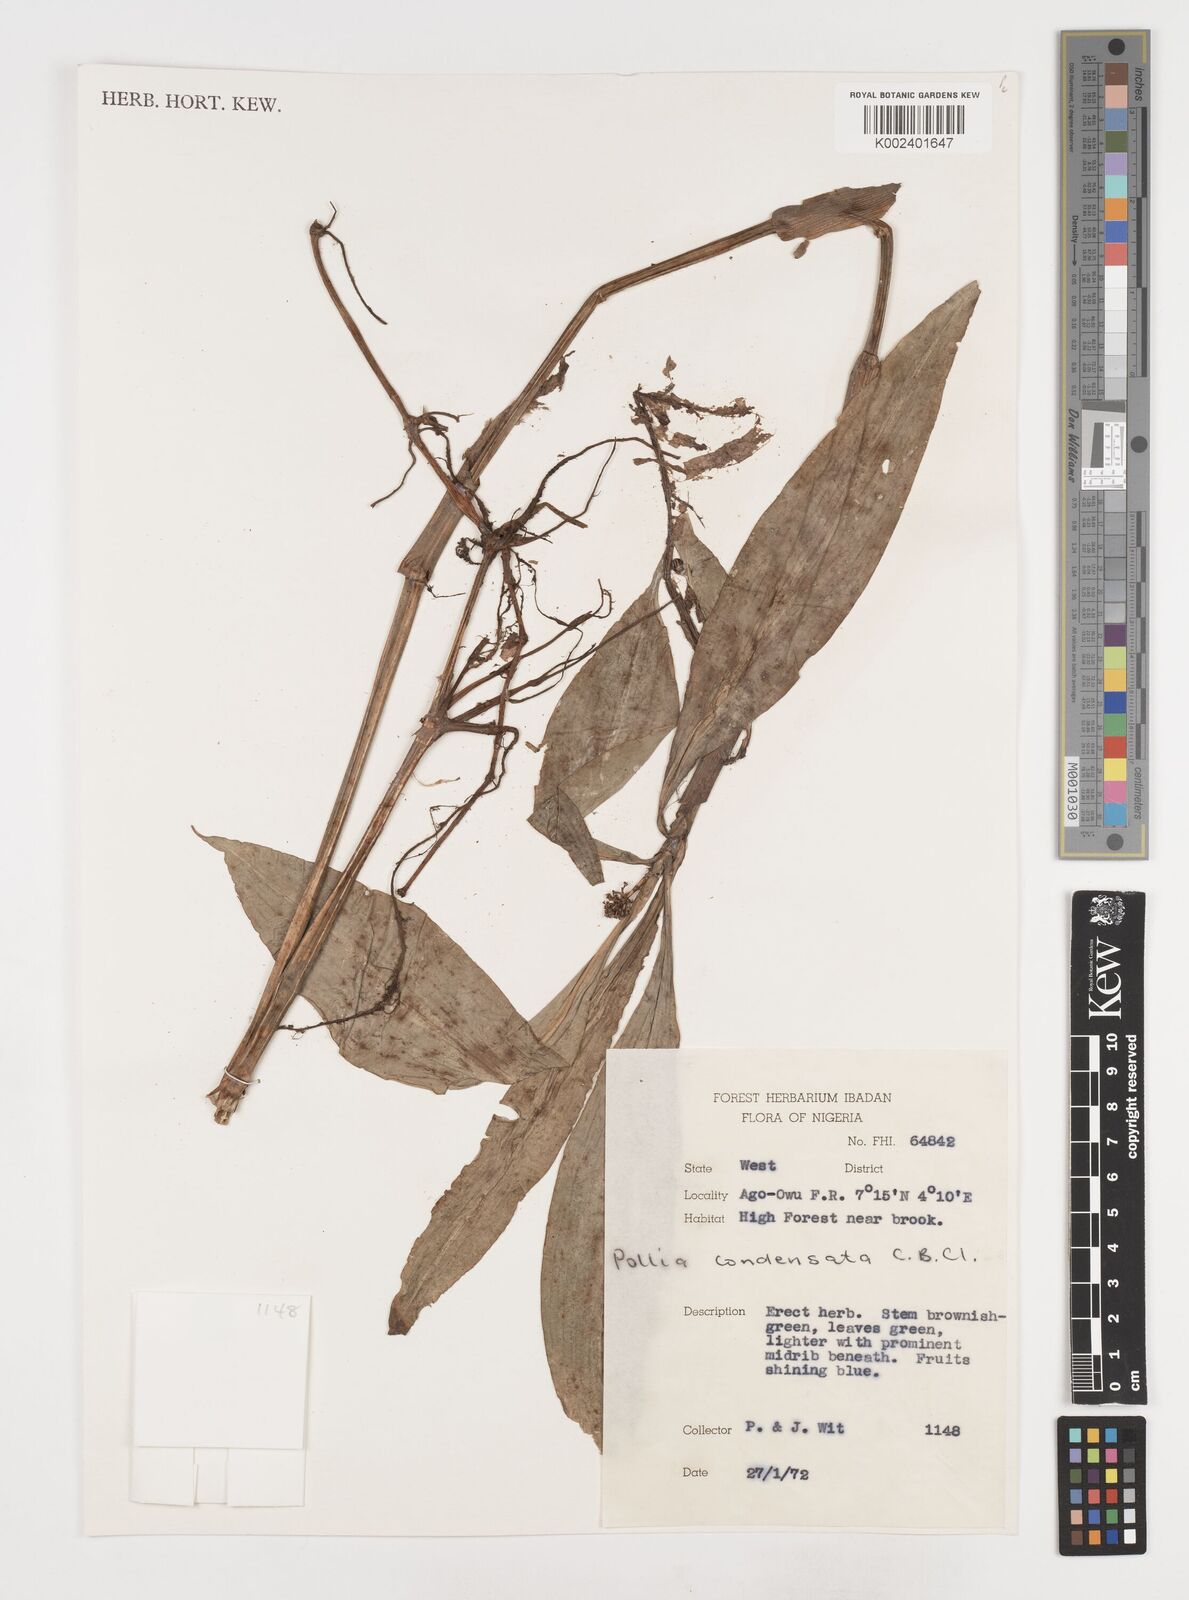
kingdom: Plantae
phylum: Tracheophyta
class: Liliopsida
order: Commelinales
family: Commelinaceae
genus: Pollia
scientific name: Pollia condensata
